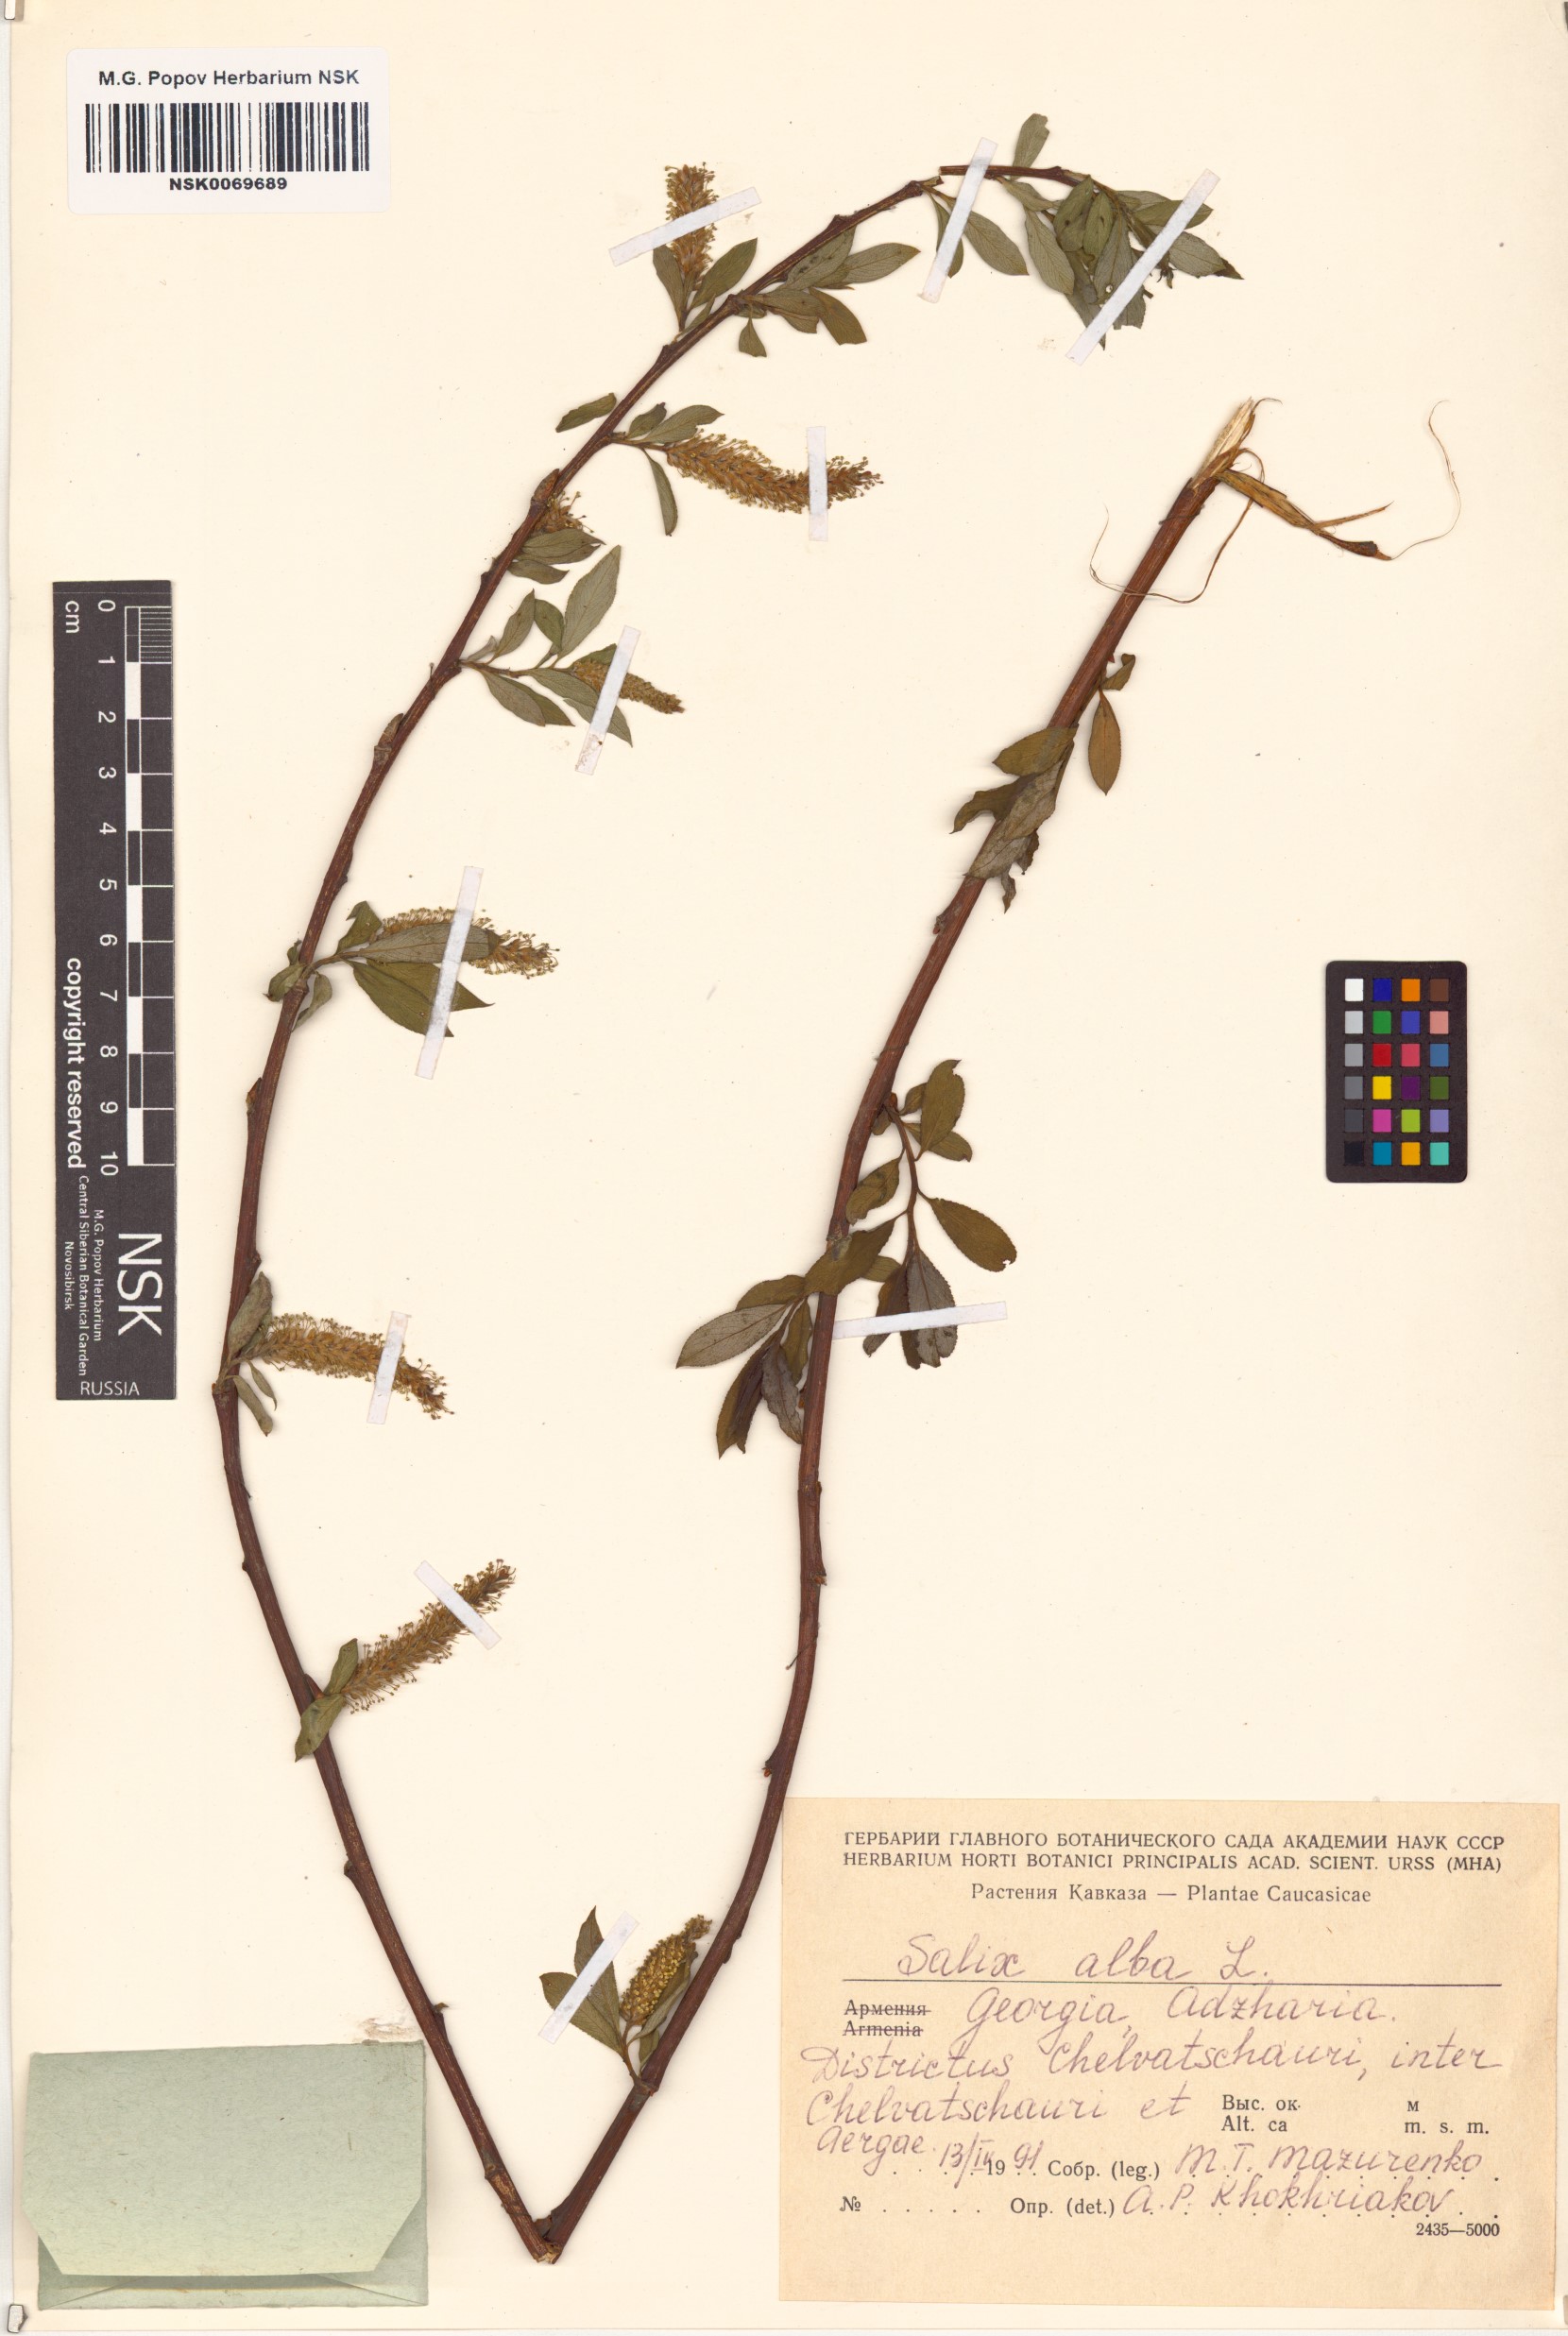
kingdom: Plantae
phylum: Tracheophyta
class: Magnoliopsida
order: Malpighiales
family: Salicaceae
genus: Salix
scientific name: Salix alba
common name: White willow
